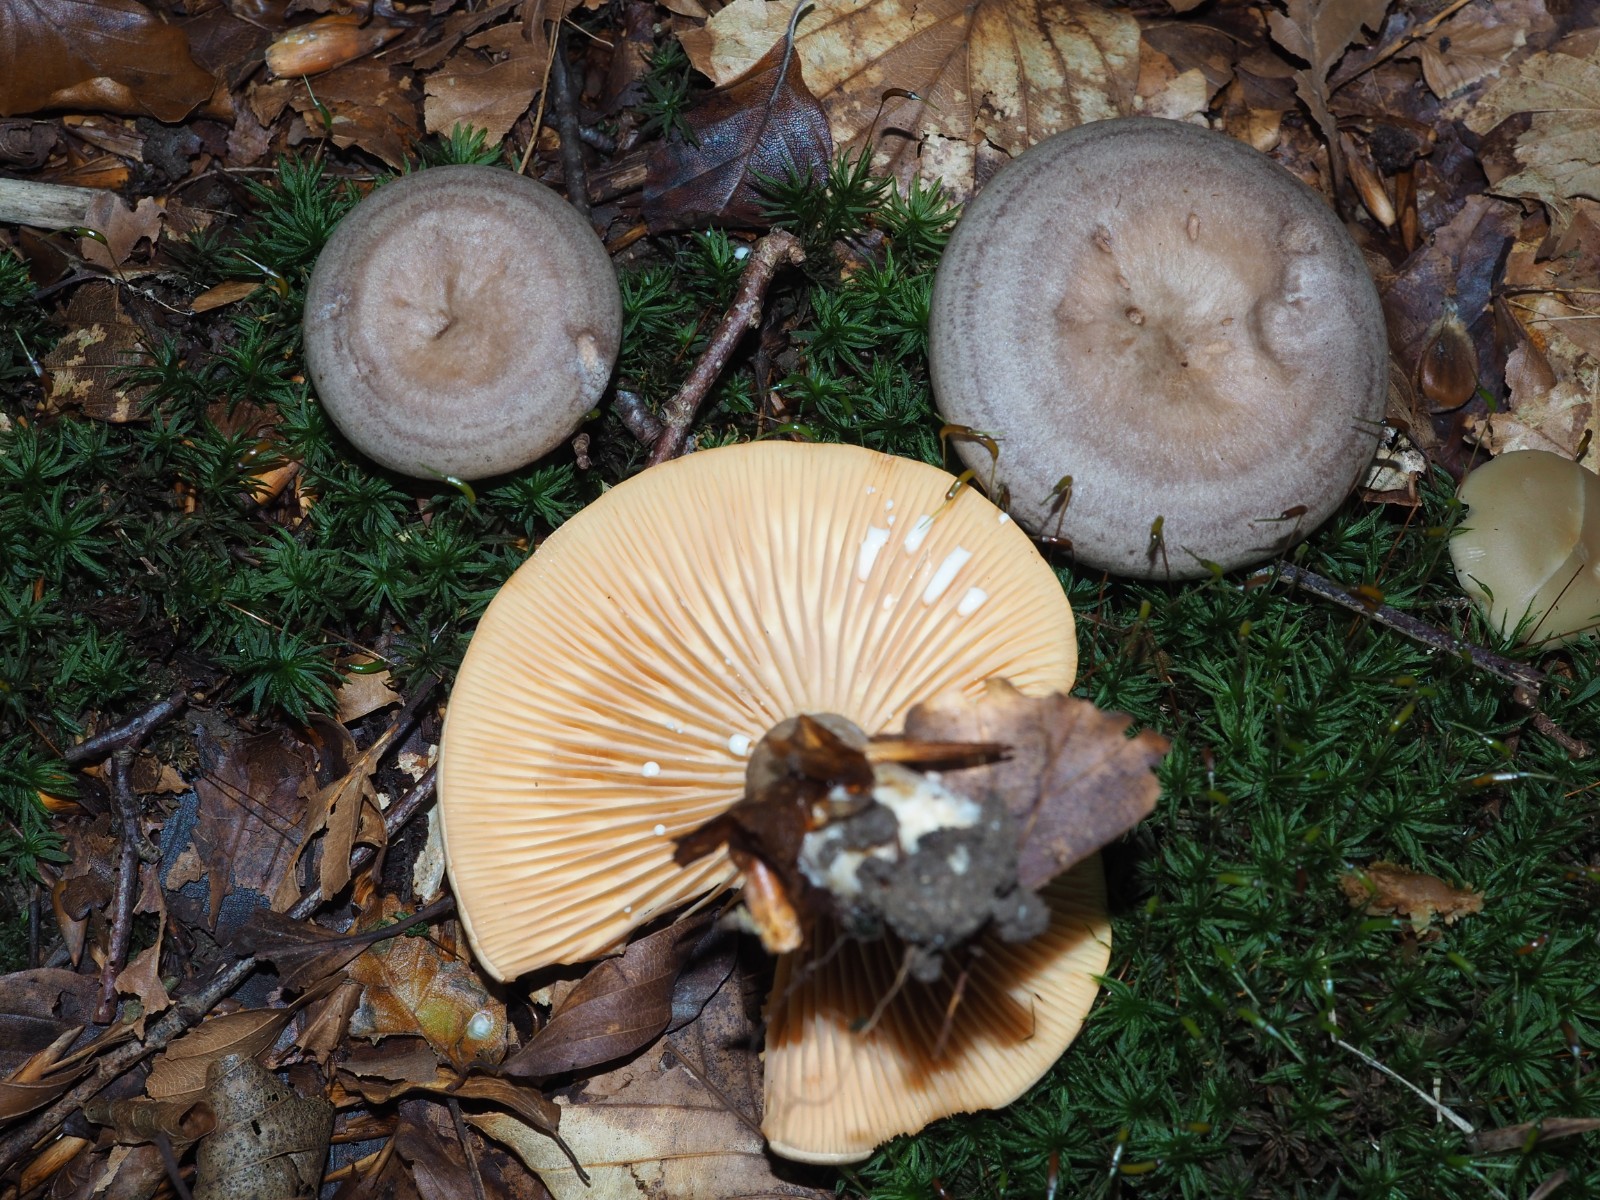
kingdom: Fungi
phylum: Basidiomycota
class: Agaricomycetes
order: Russulales
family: Russulaceae
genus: Lactarius
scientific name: Lactarius pyrogalus
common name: hassel-mælkehat
